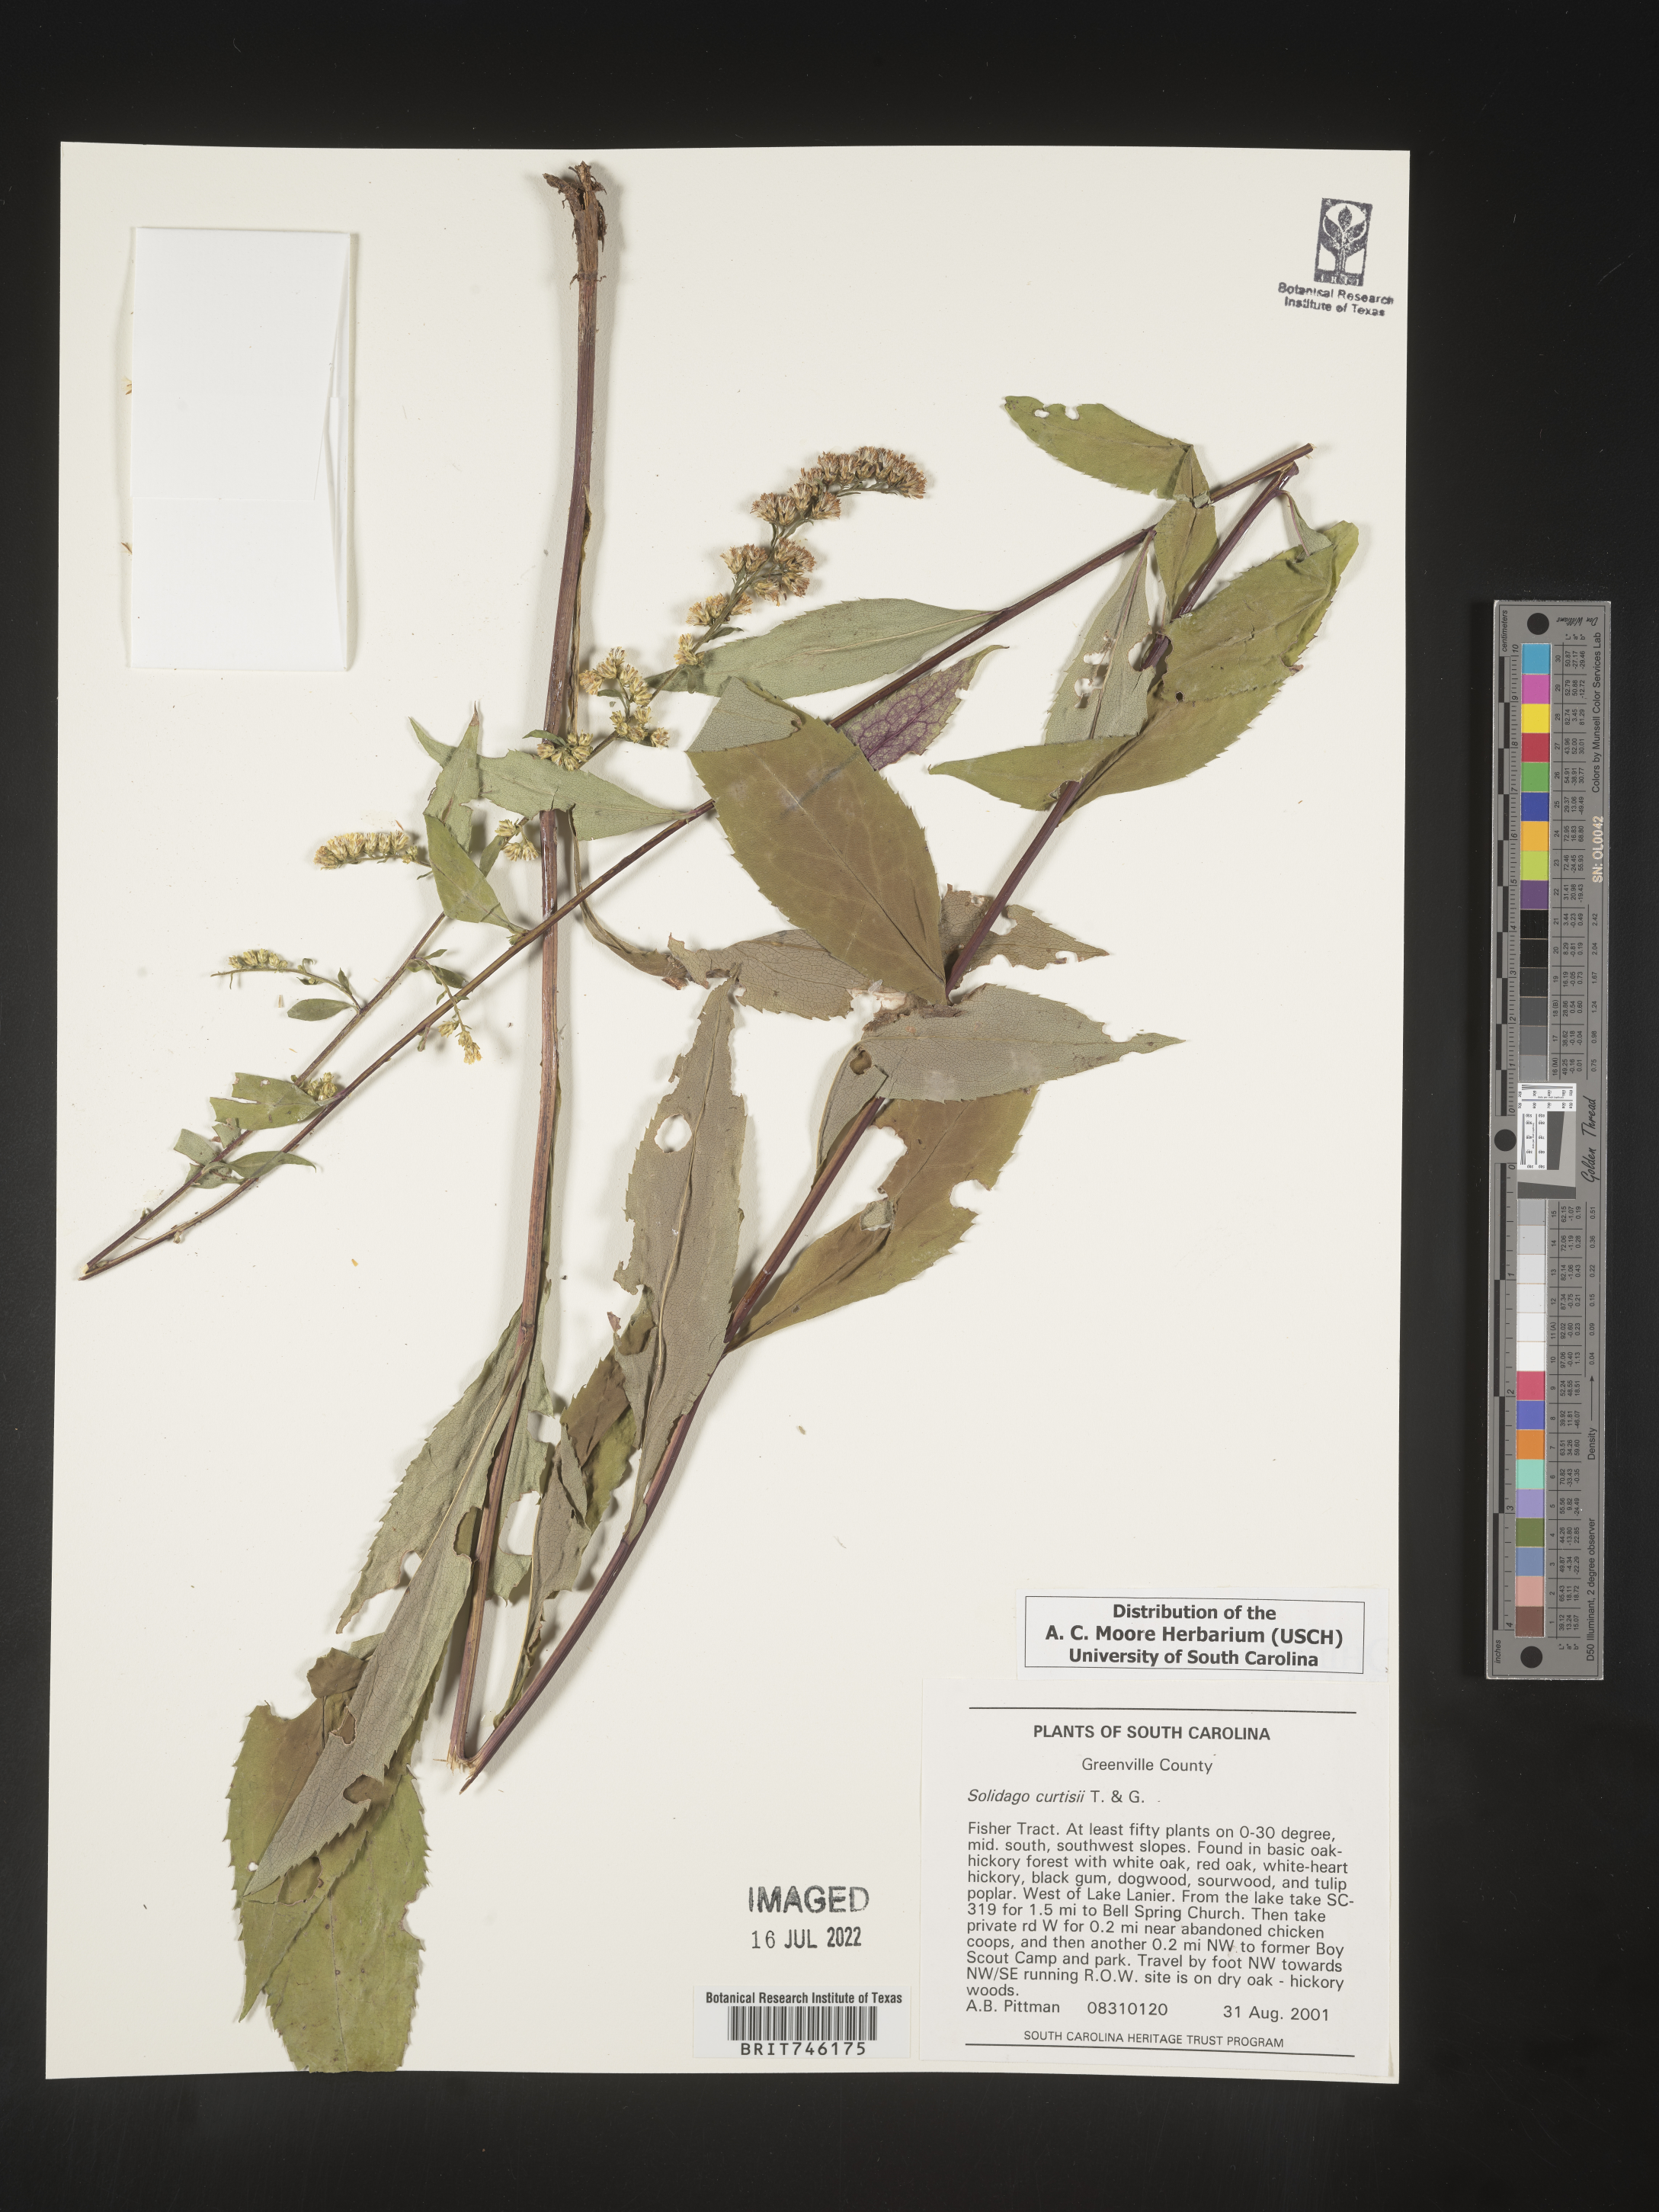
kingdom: Plantae
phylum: Tracheophyta
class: Magnoliopsida
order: Asterales
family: Asteraceae
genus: Solidago
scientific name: Solidago curtisii
